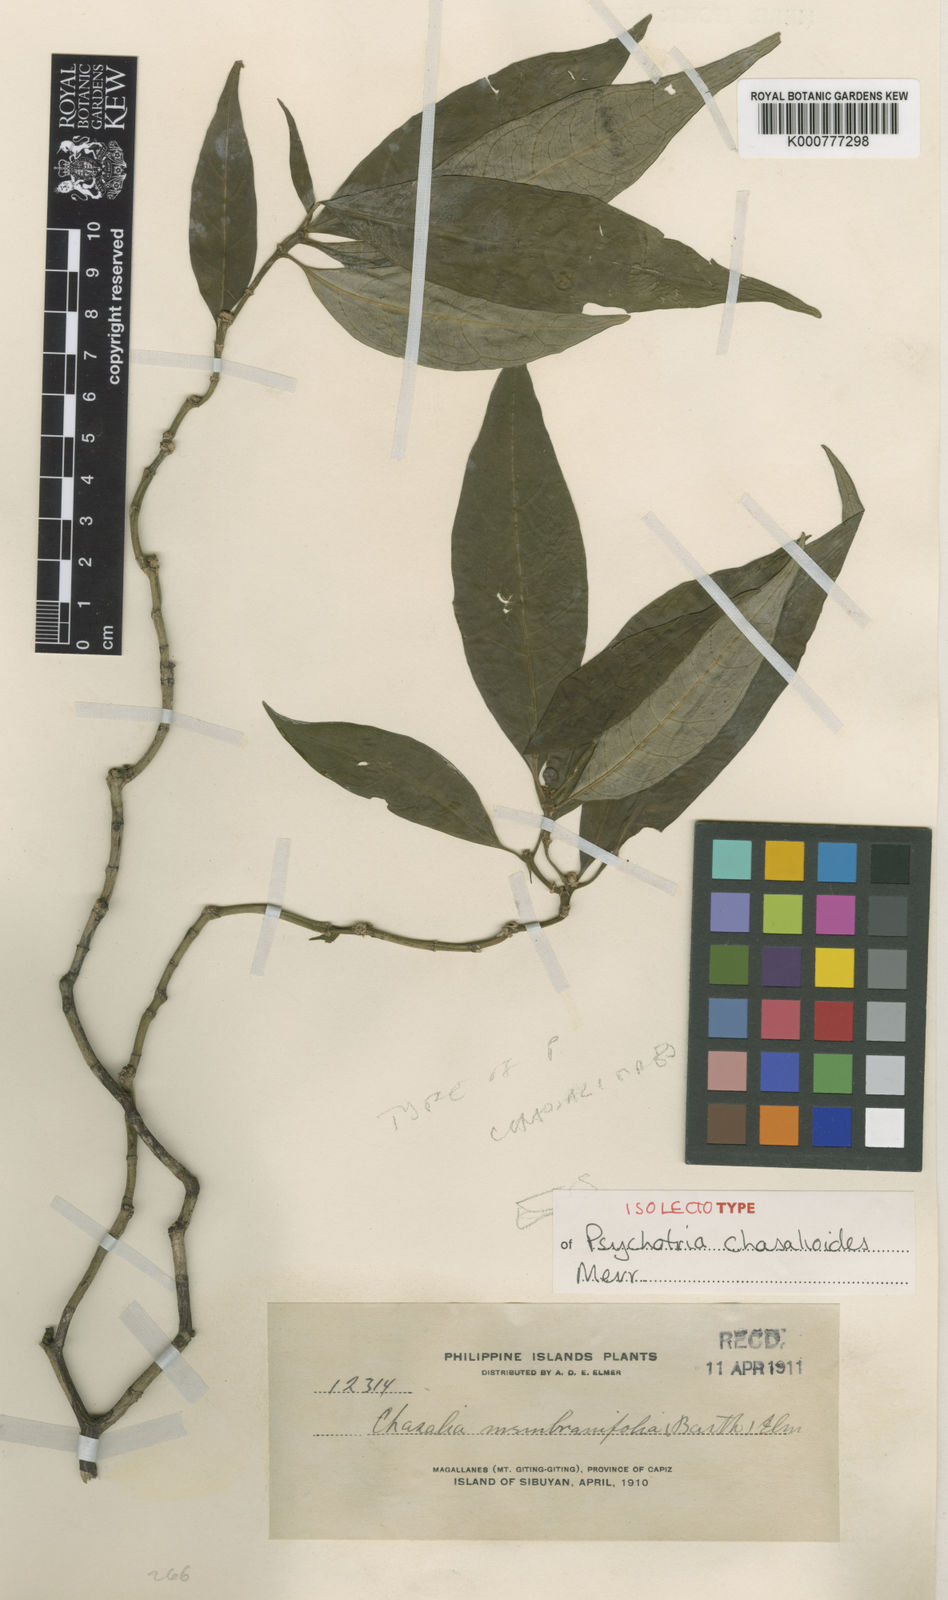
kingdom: Plantae
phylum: Tracheophyta
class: Magnoliopsida
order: Gentianales
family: Rubiaceae
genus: Eumachia
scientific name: Eumachia membranifolia
